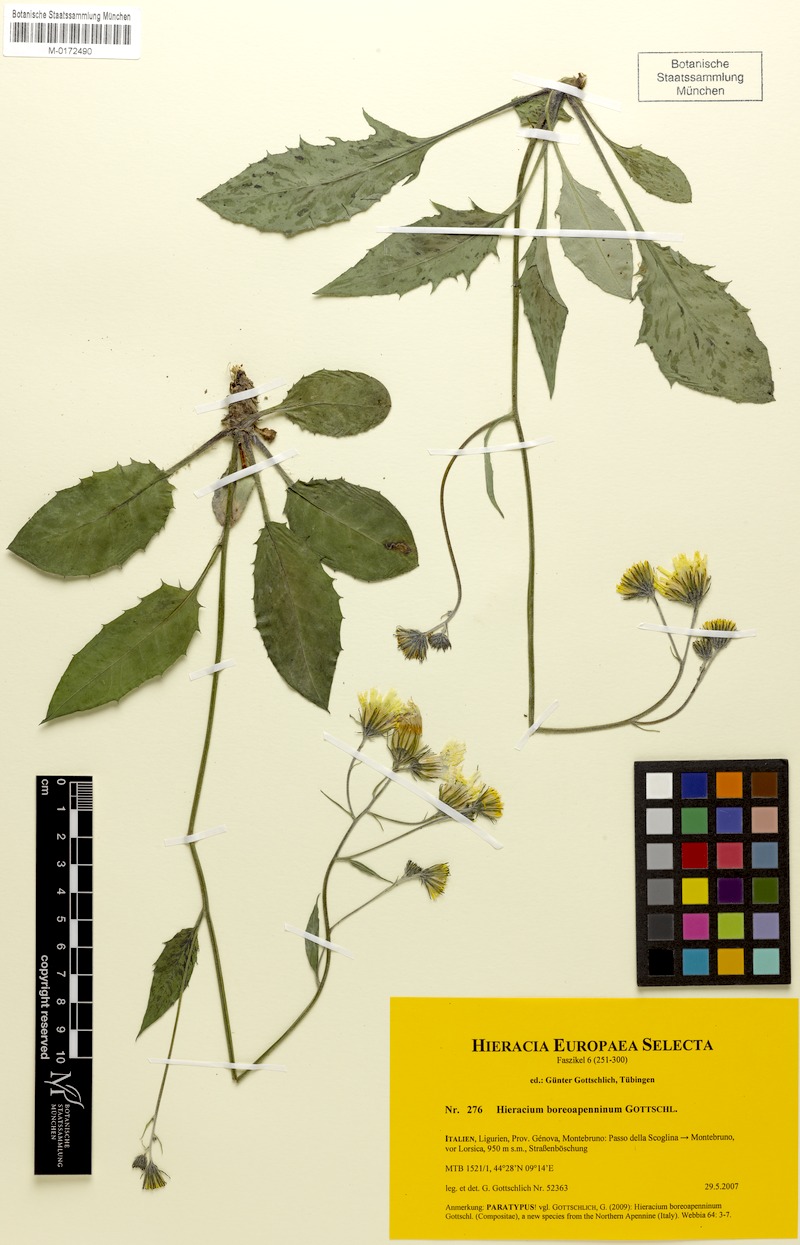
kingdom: Plantae
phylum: Tracheophyta
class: Magnoliopsida
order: Asterales
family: Asteraceae
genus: Hieracium
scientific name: Hieracium boreoapenninum
